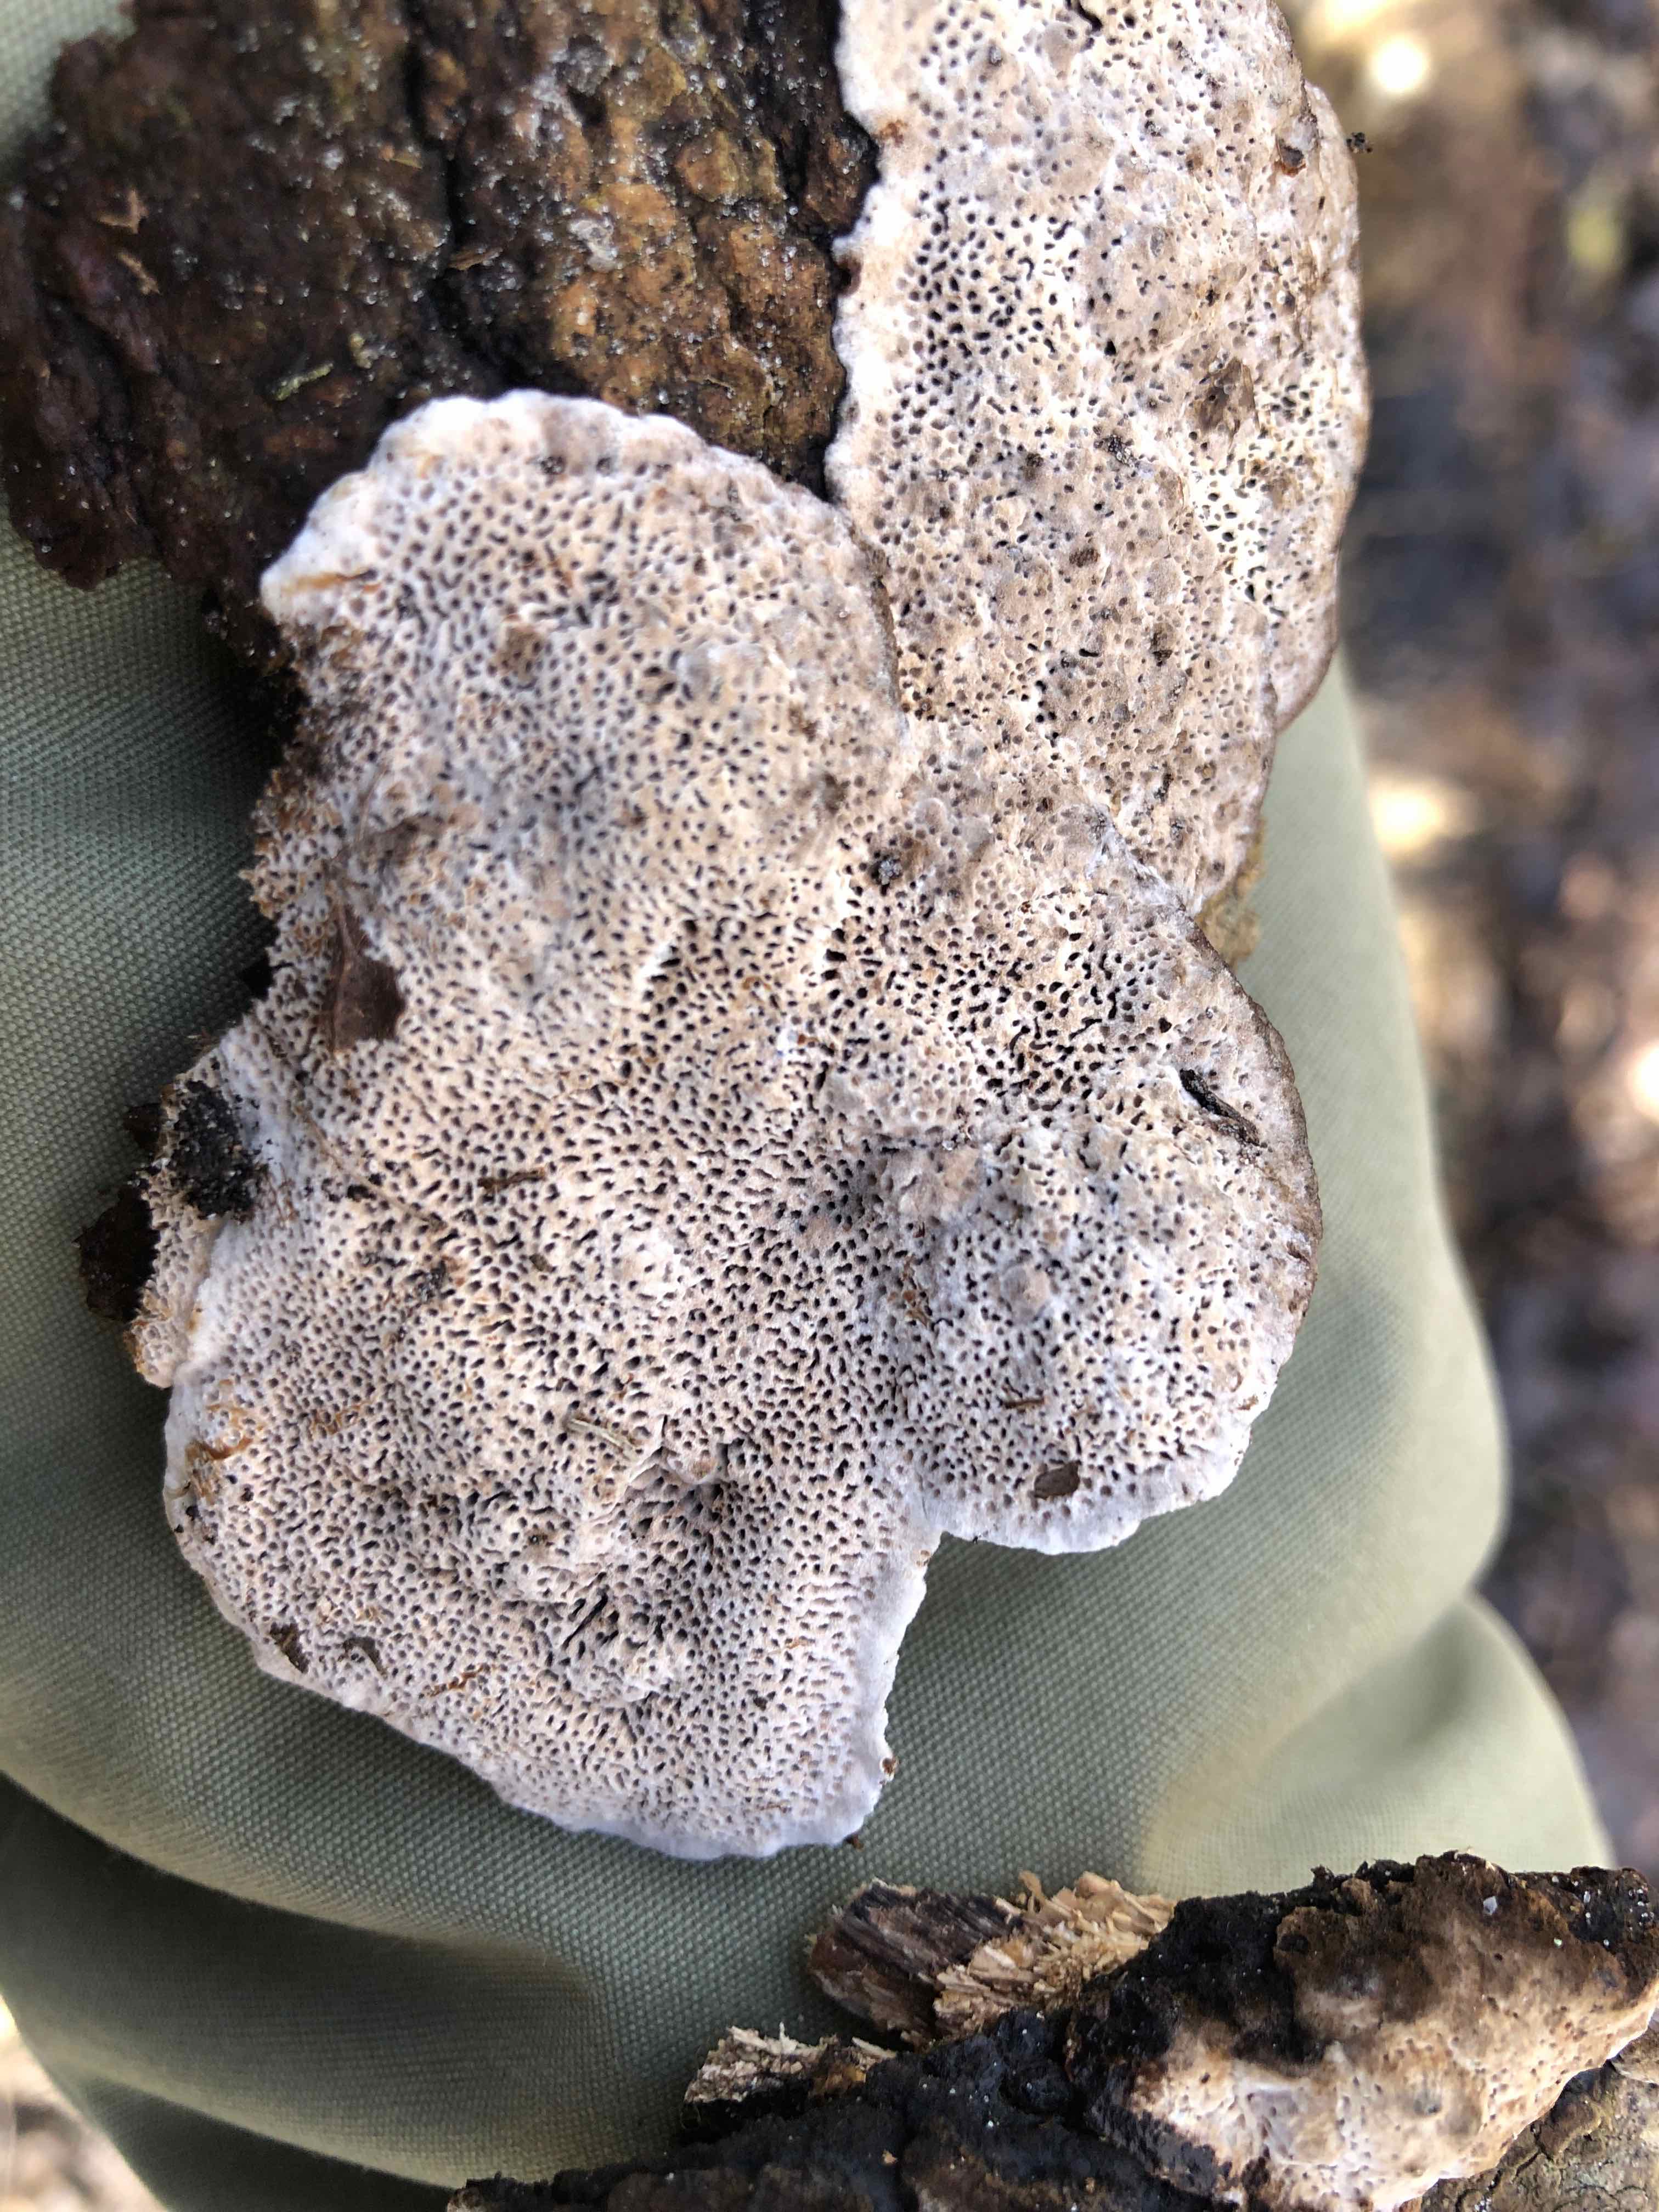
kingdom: Fungi
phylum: Basidiomycota
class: Agaricomycetes
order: Polyporales
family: Polyporaceae
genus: Podofomes
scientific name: Podofomes mollis
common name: blød begporesvamp
